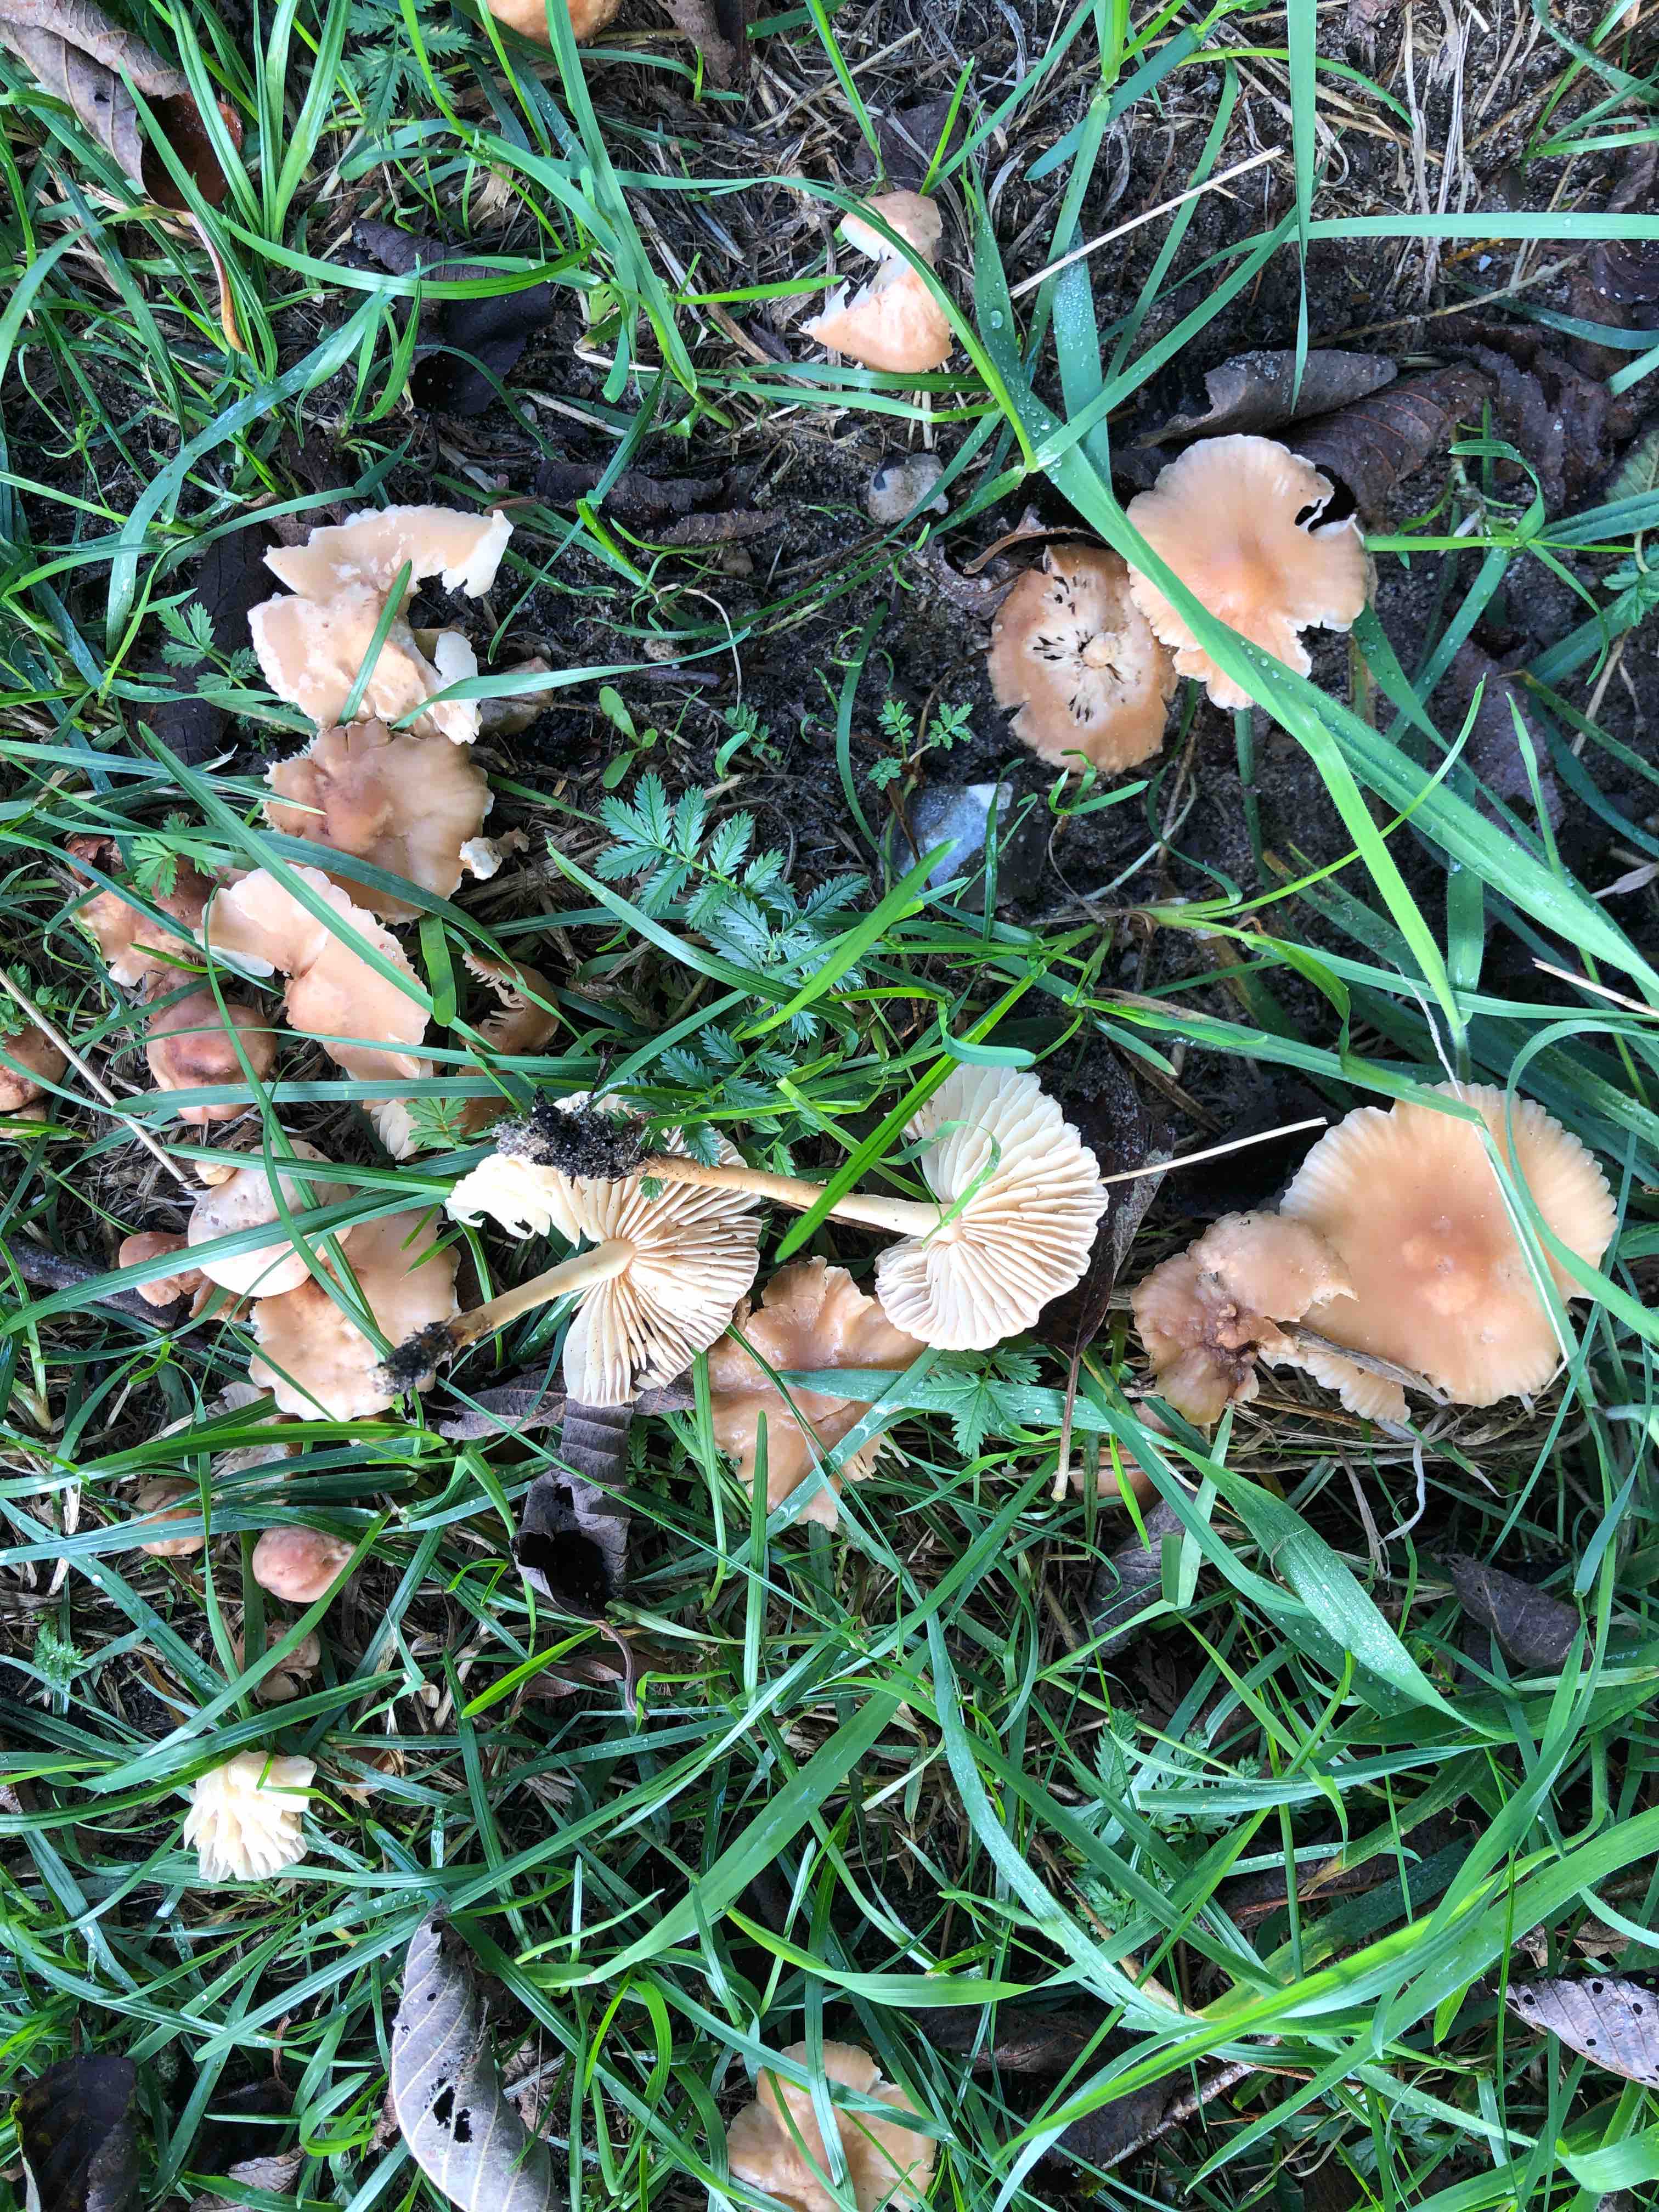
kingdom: Fungi
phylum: Basidiomycota
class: Agaricomycetes
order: Agaricales
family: Marasmiaceae
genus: Marasmius
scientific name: Marasmius oreades
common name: elledans-bruskhat
